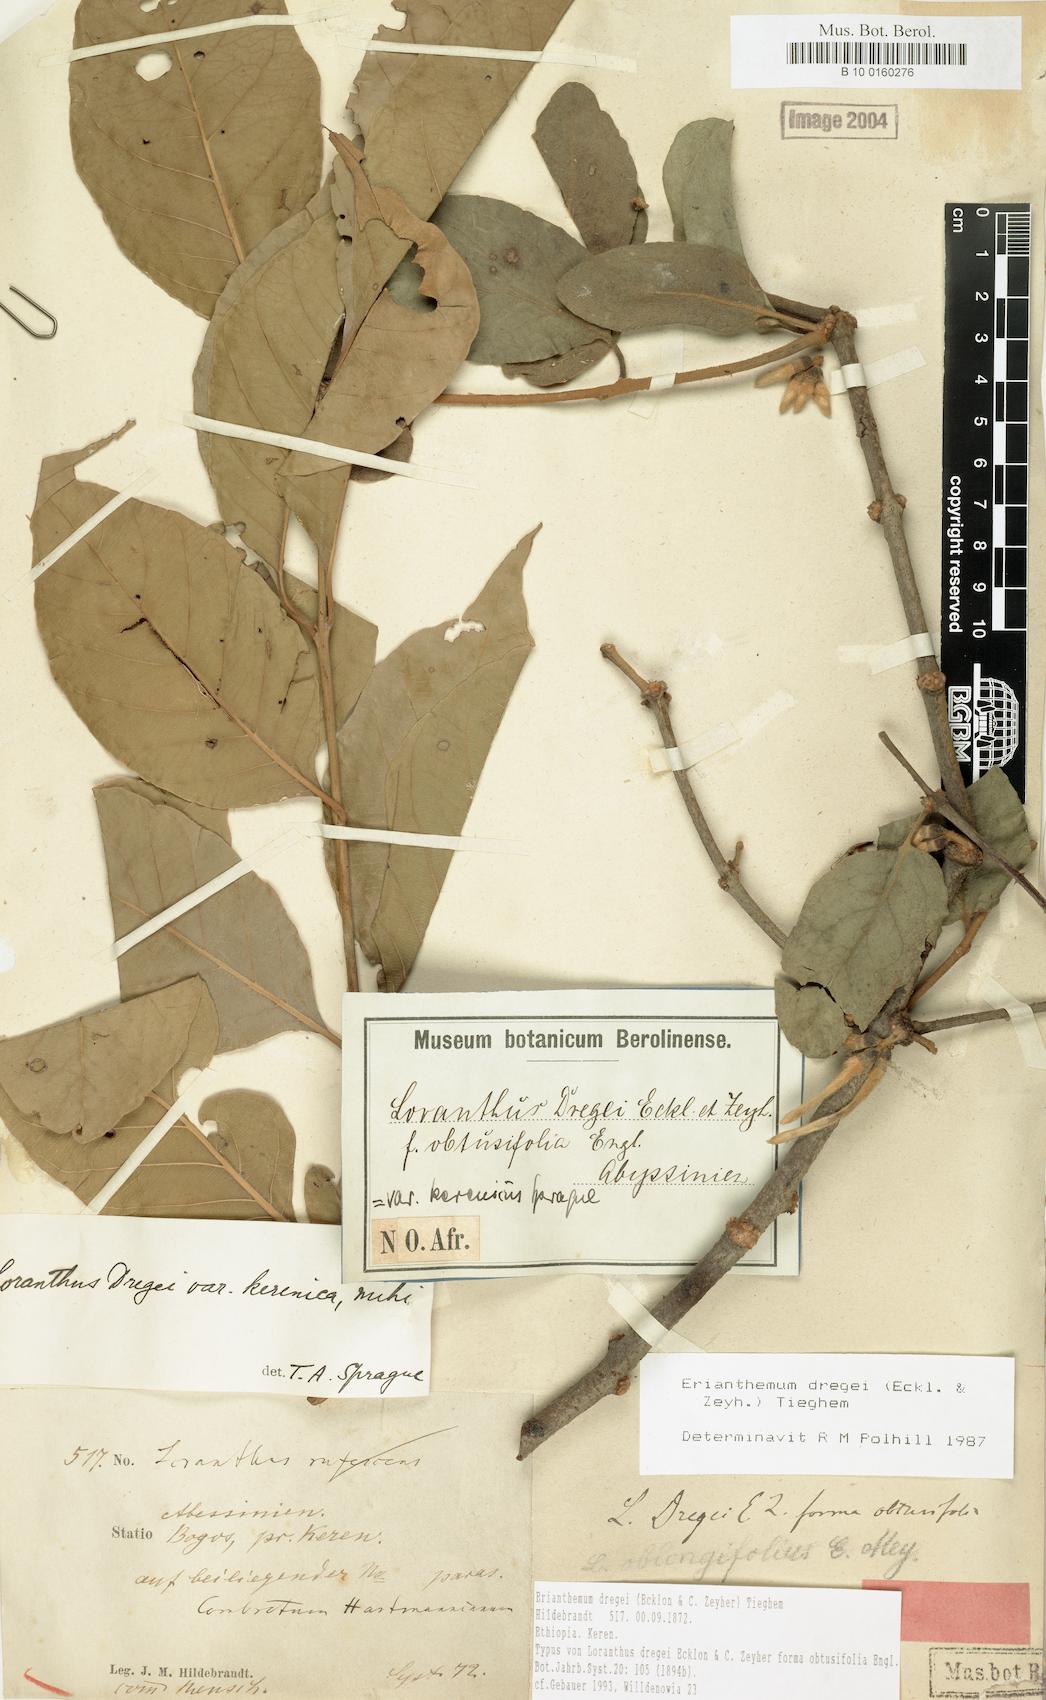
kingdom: Plantae
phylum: Tracheophyta
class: Magnoliopsida
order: Santalales
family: Loranthaceae
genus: Erianthemum
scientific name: Erianthemum dregei
